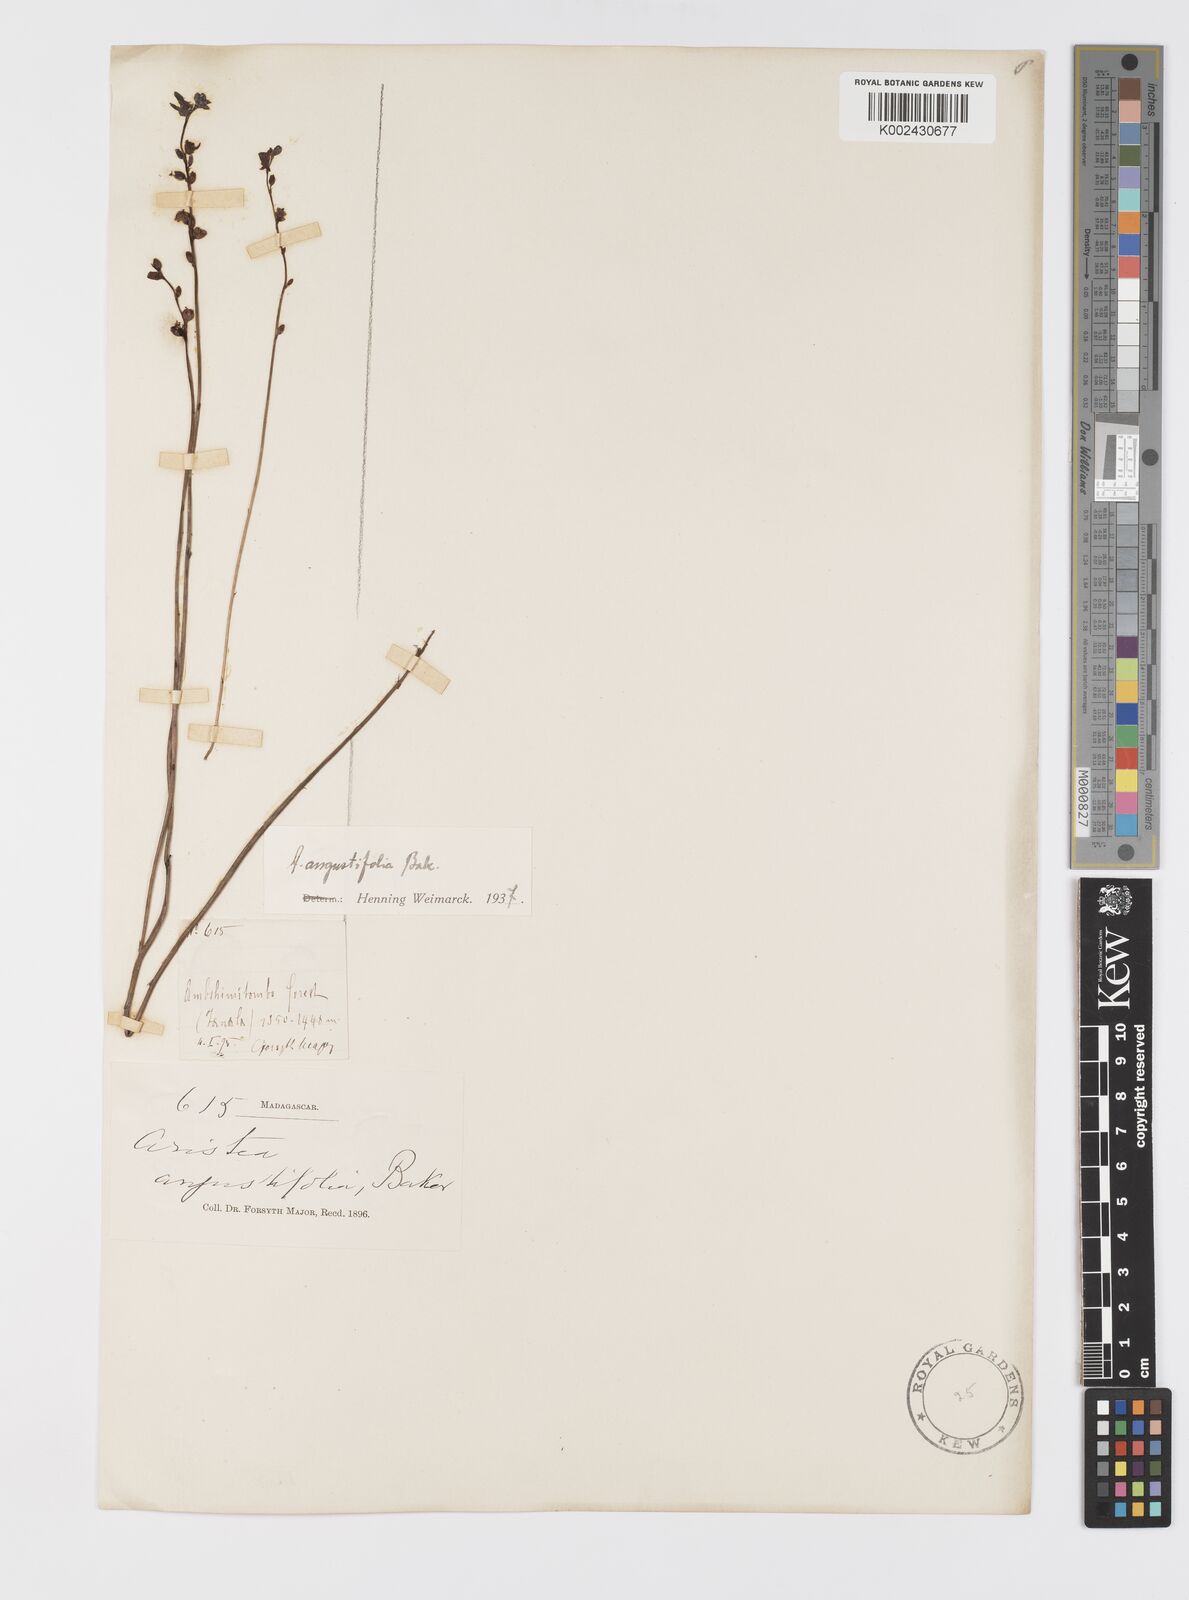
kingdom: Plantae
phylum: Tracheophyta
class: Liliopsida
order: Asparagales
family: Iridaceae
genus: Aristea
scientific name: Aristea angustifolia
